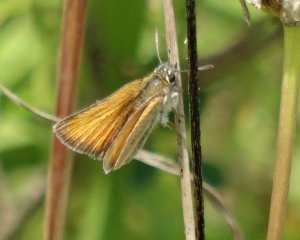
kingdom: Animalia
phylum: Arthropoda
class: Insecta
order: Lepidoptera
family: Hesperiidae
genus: Thymelicus
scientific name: Thymelicus lineola
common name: European Skipper
